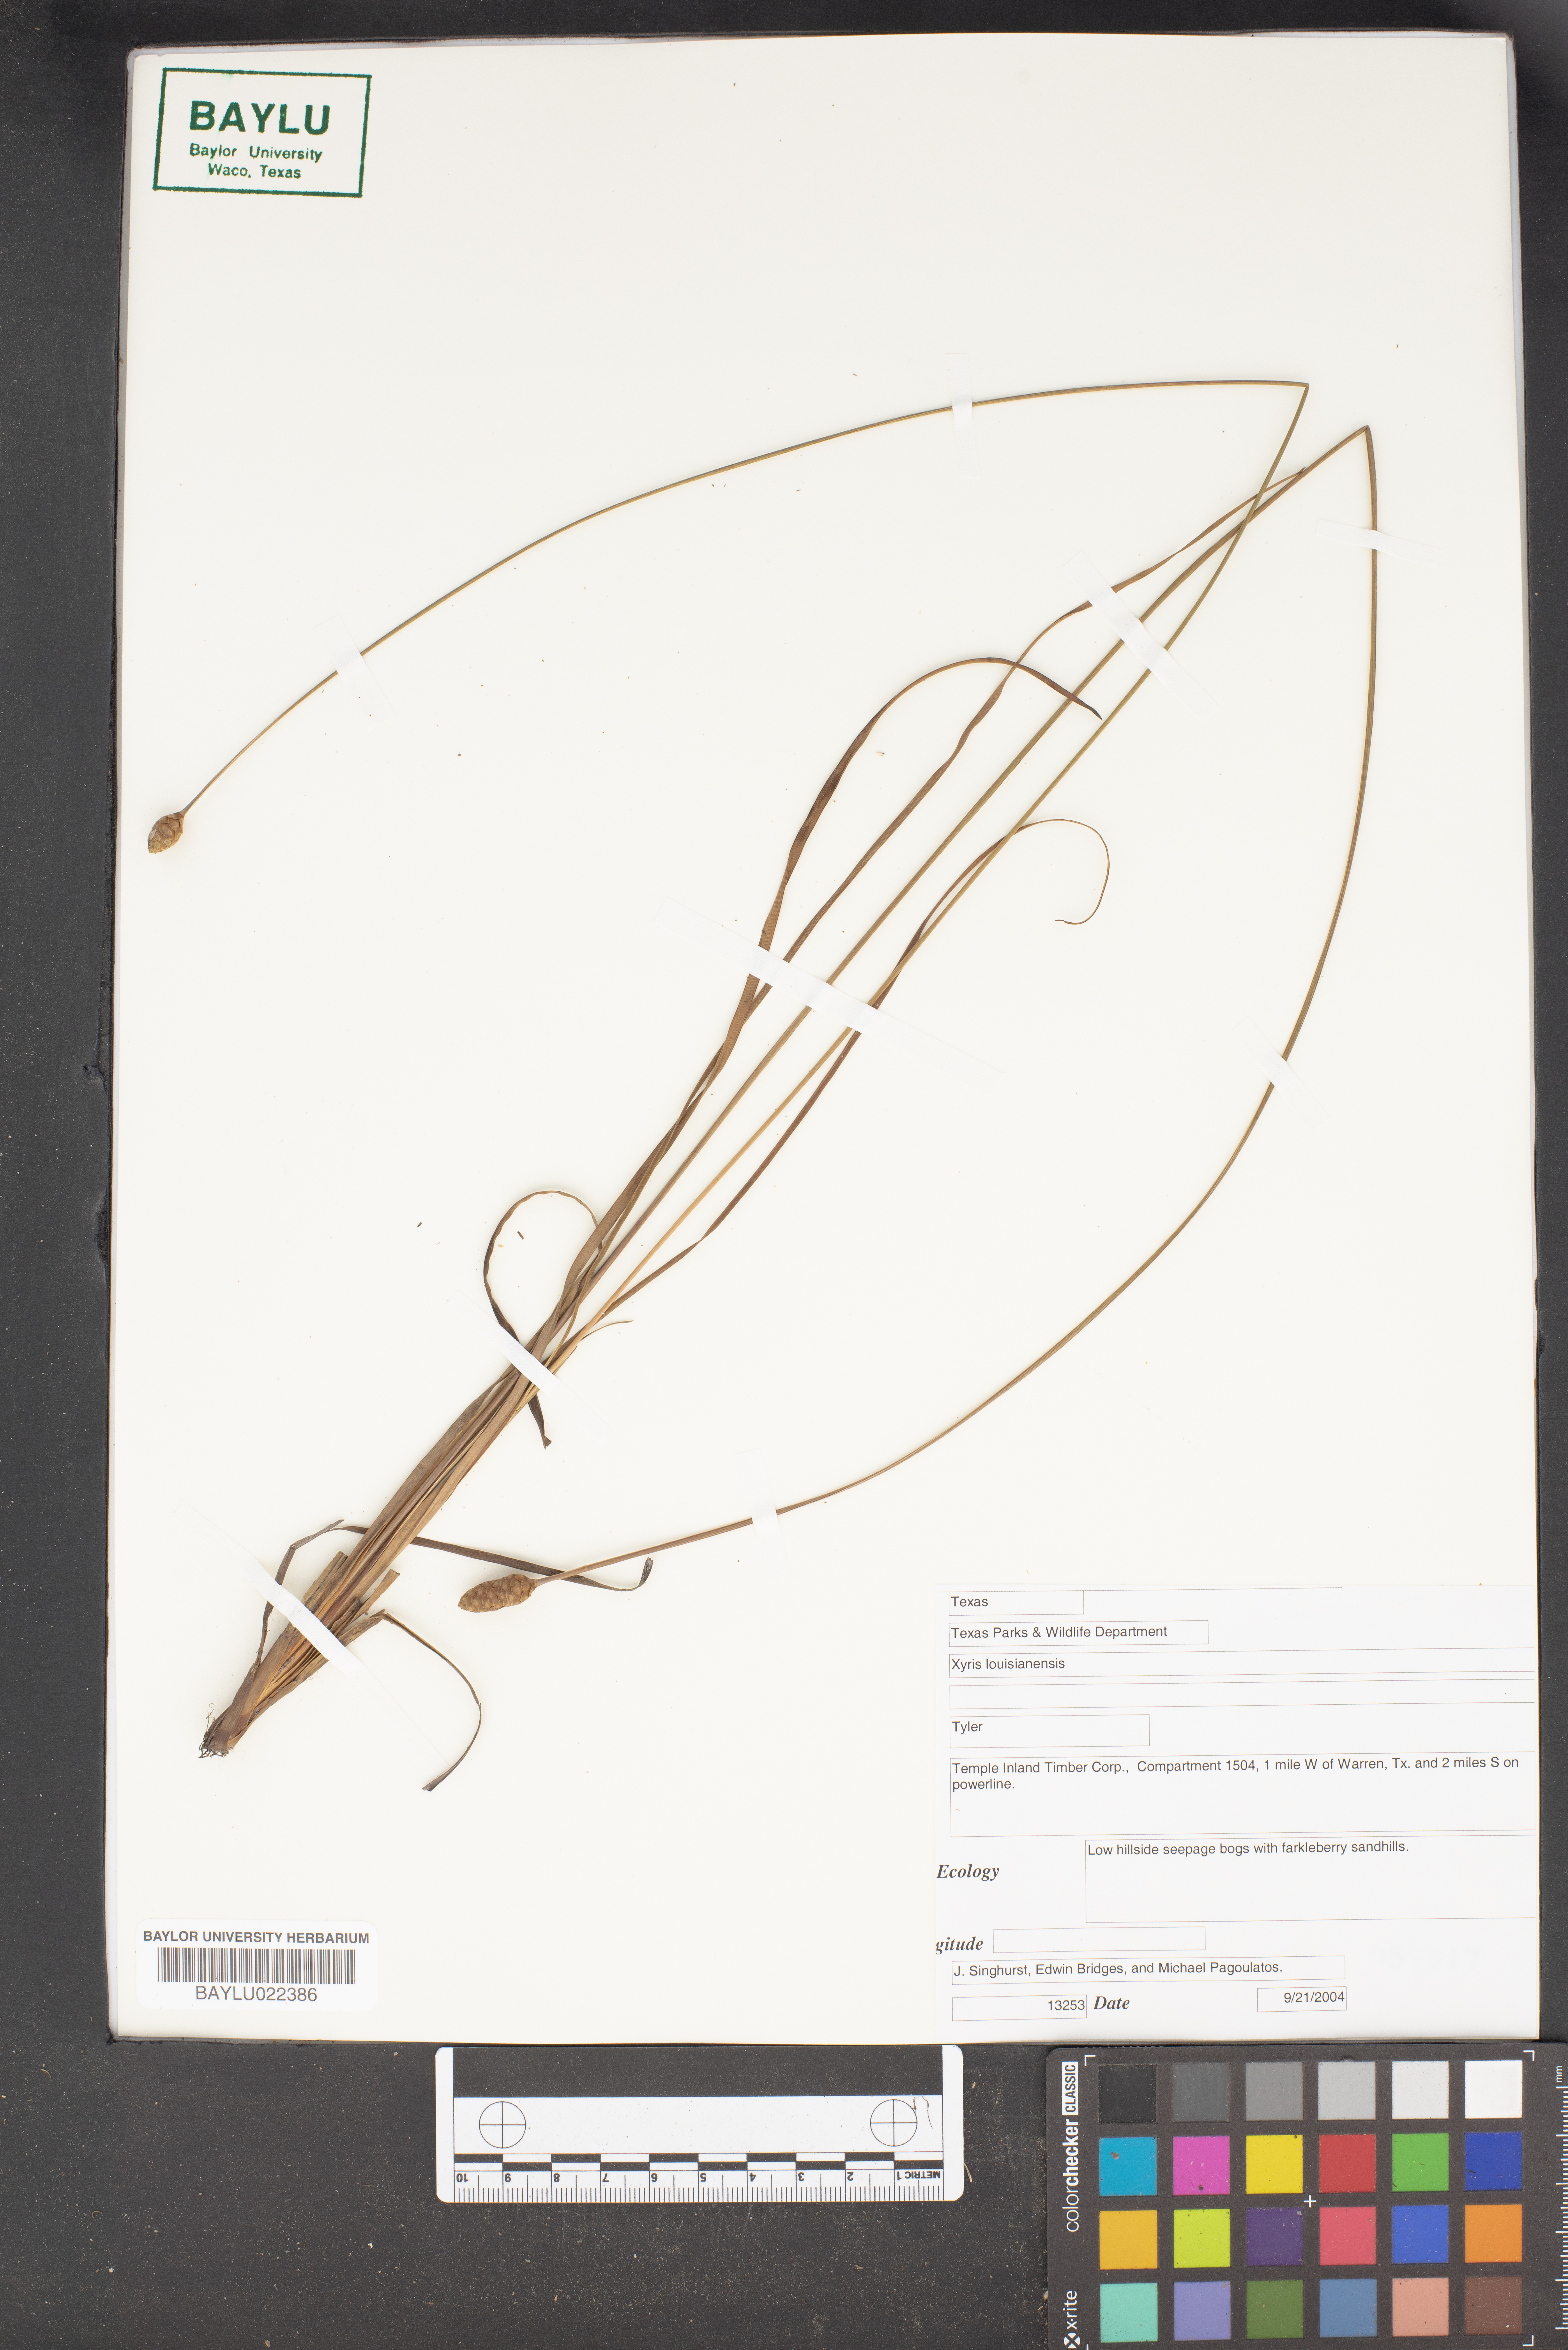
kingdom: Plantae
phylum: Tracheophyta
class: Liliopsida
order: Poales
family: Xyridaceae
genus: Xyris
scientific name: Xyris stricta
